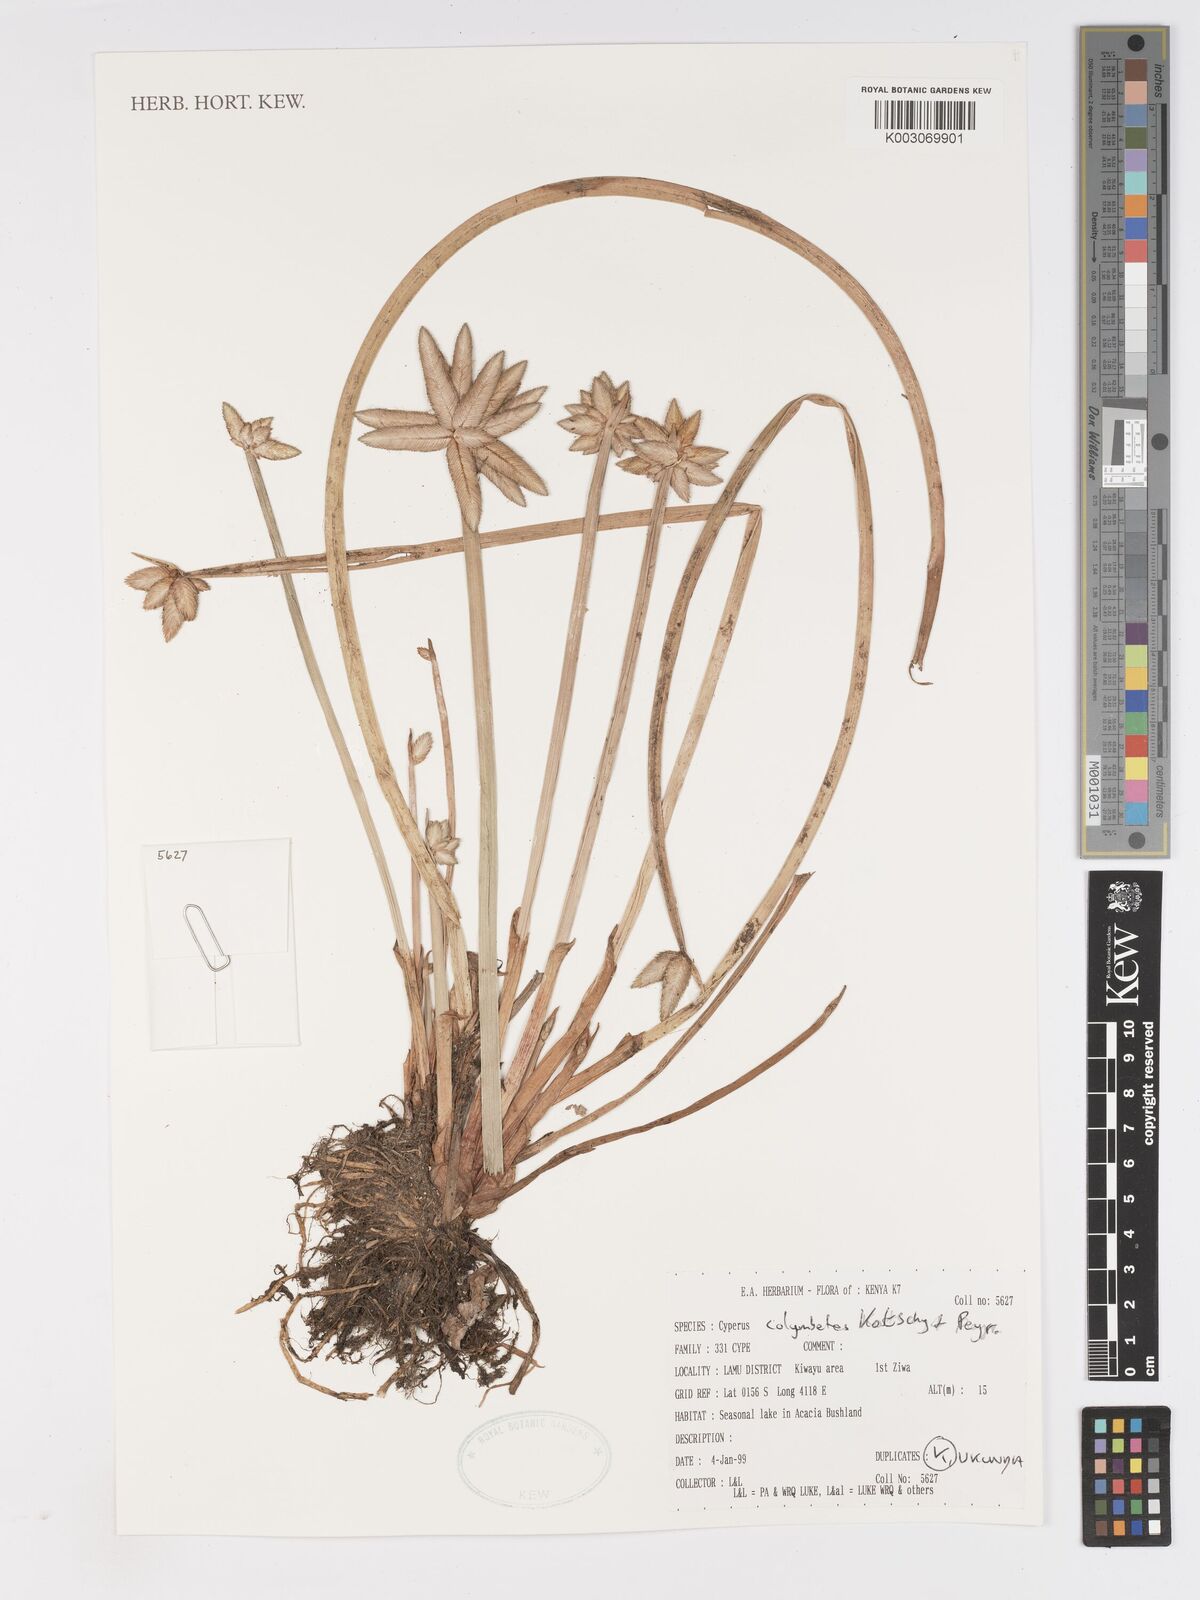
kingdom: Plantae
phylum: Tracheophyta
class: Liliopsida
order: Poales
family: Cyperaceae
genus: Cyperus
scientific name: Cyperus colymbetes
